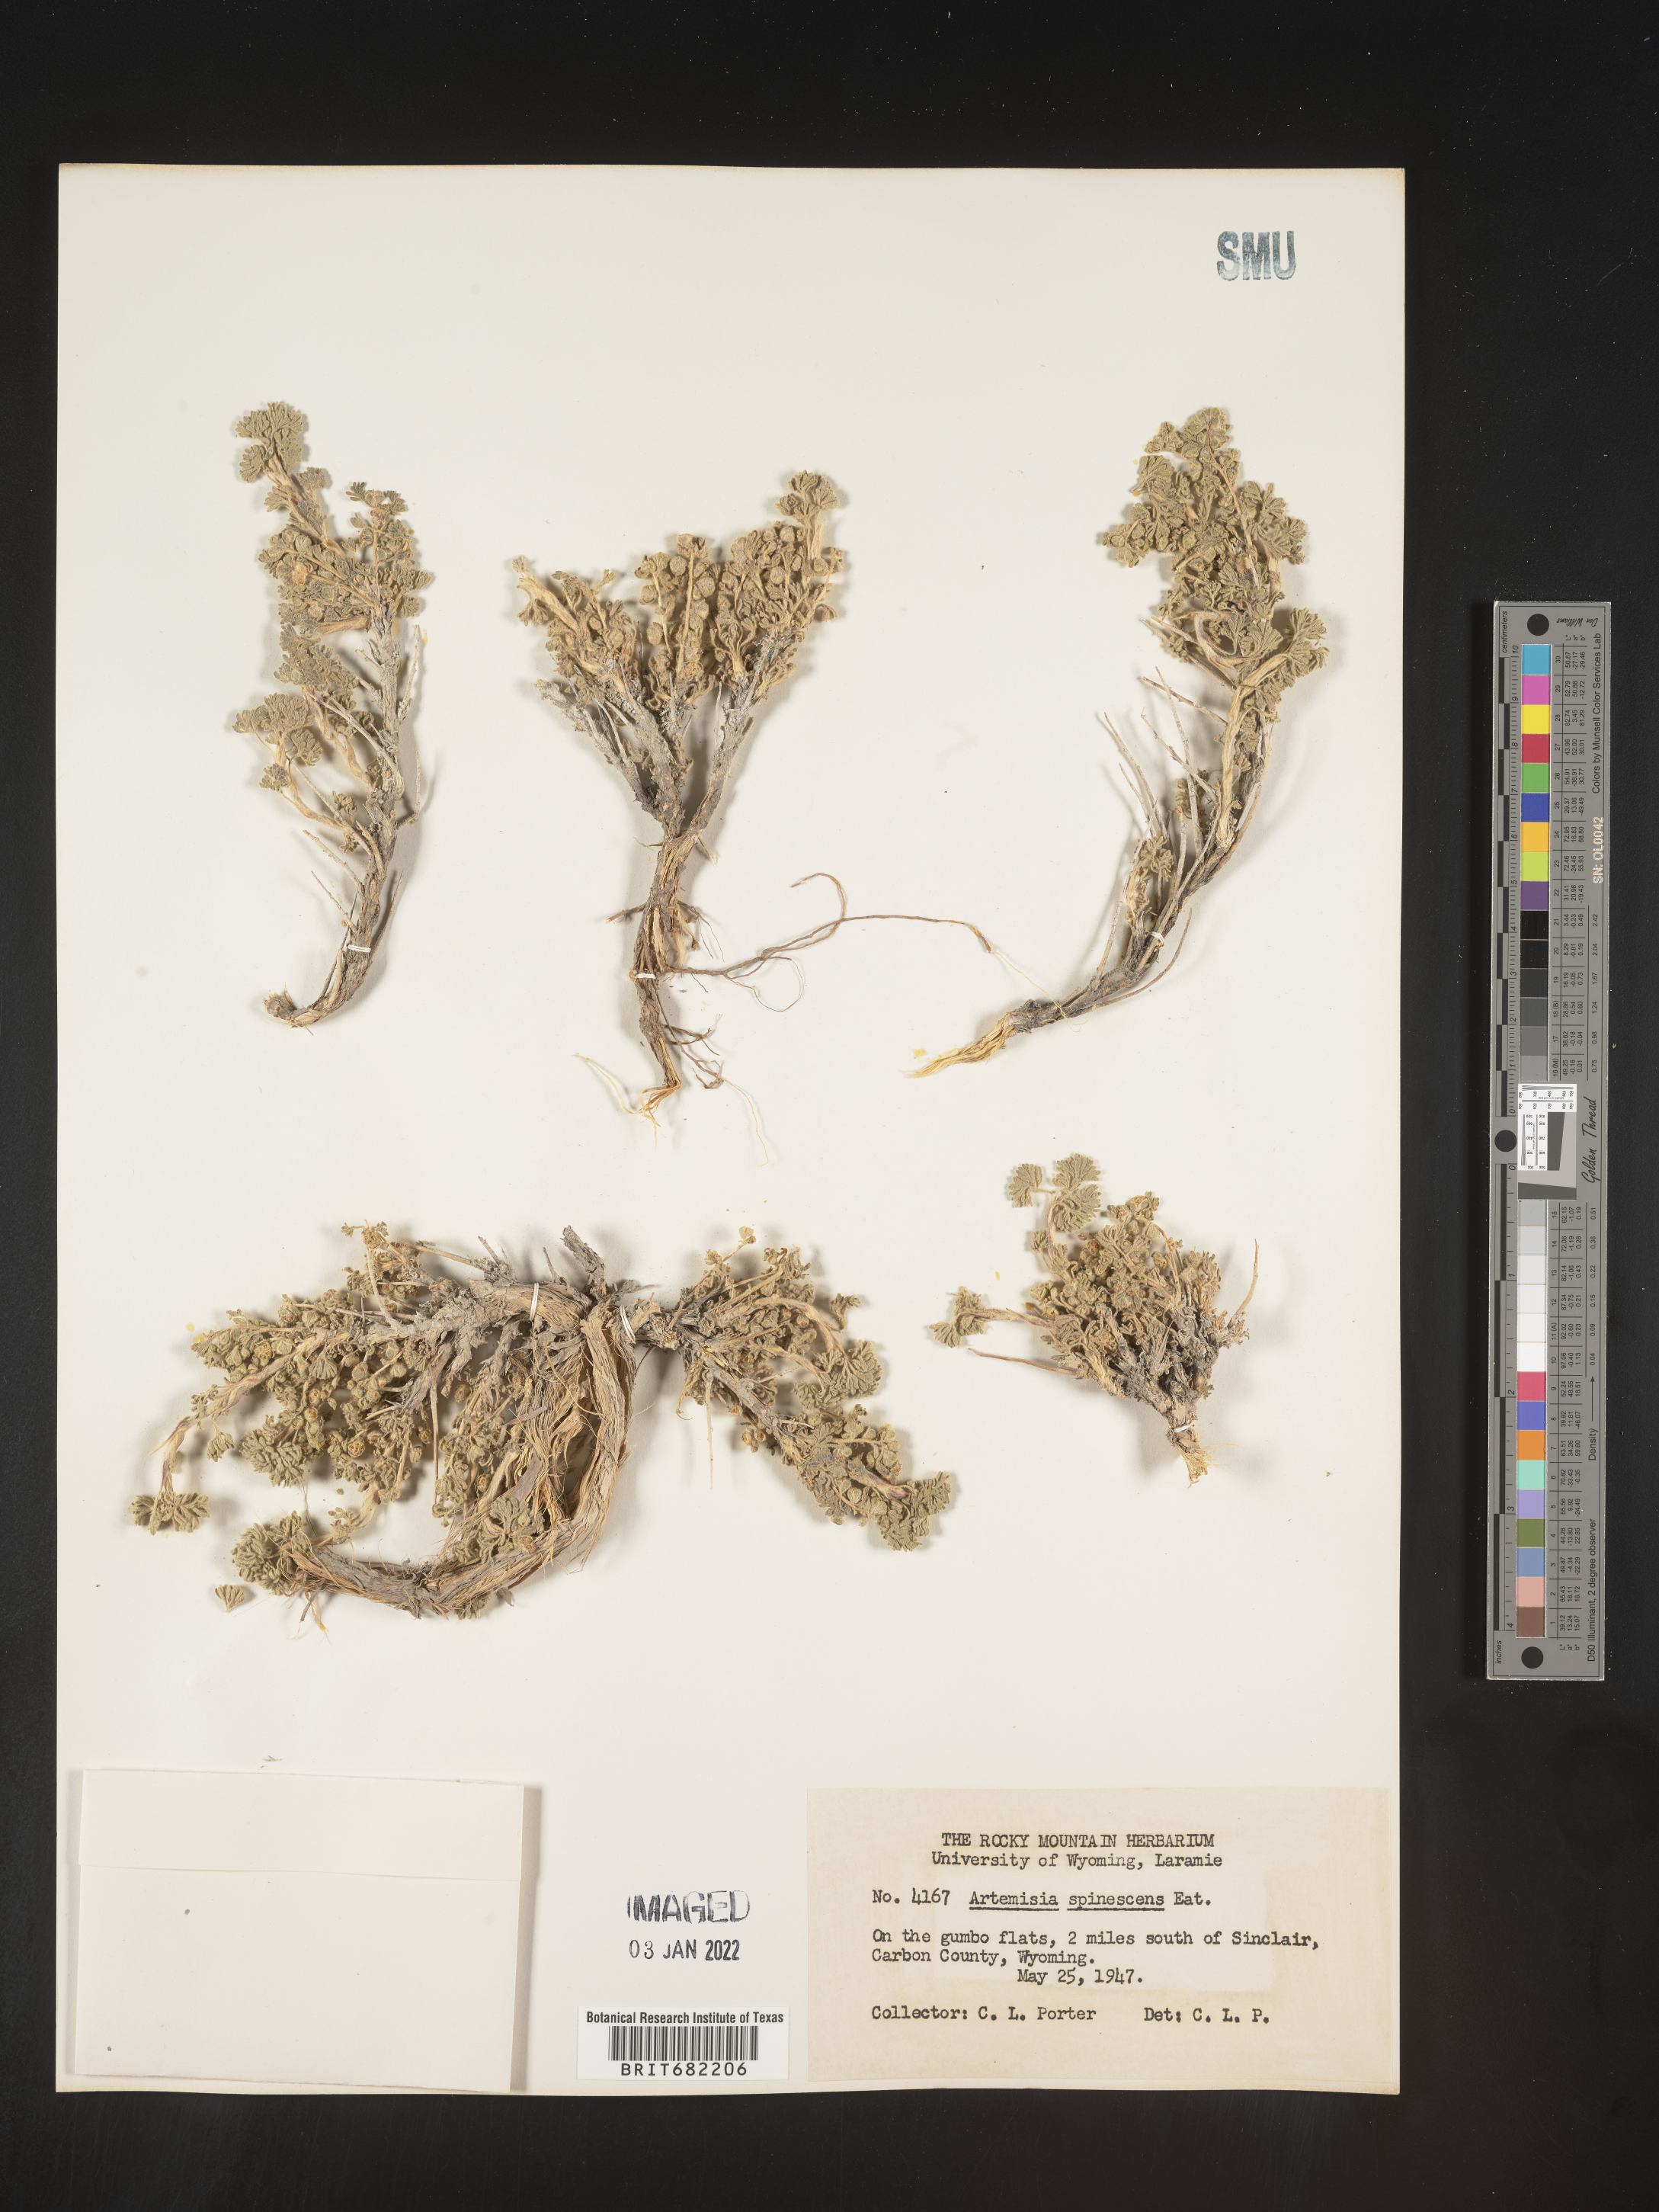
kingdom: Plantae
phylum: Tracheophyta
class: Magnoliopsida
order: Asterales
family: Asteraceae
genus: Artemisia
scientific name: Artemisia spinescens
